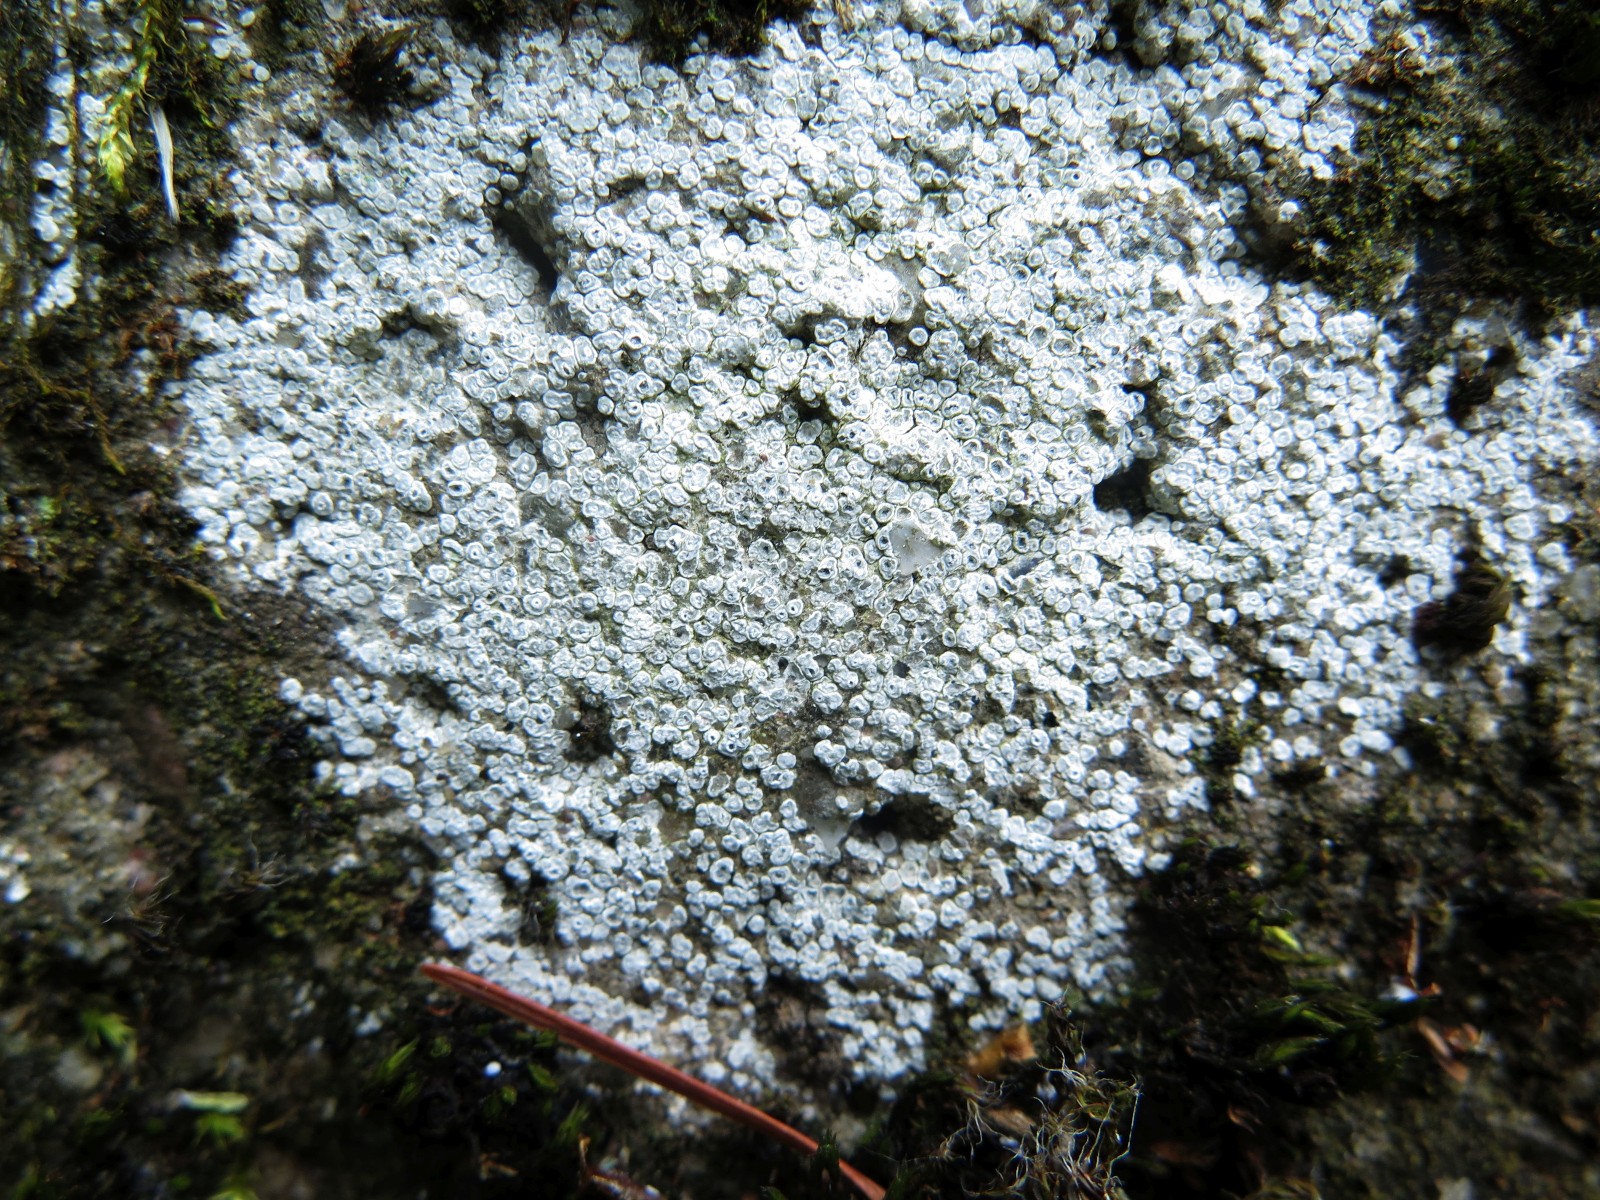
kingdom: Fungi
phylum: Ascomycota
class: Lecanoromycetes
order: Pertusariales
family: Megasporaceae
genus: Circinaria
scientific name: Circinaria contorta
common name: indviklet hulskivelav
